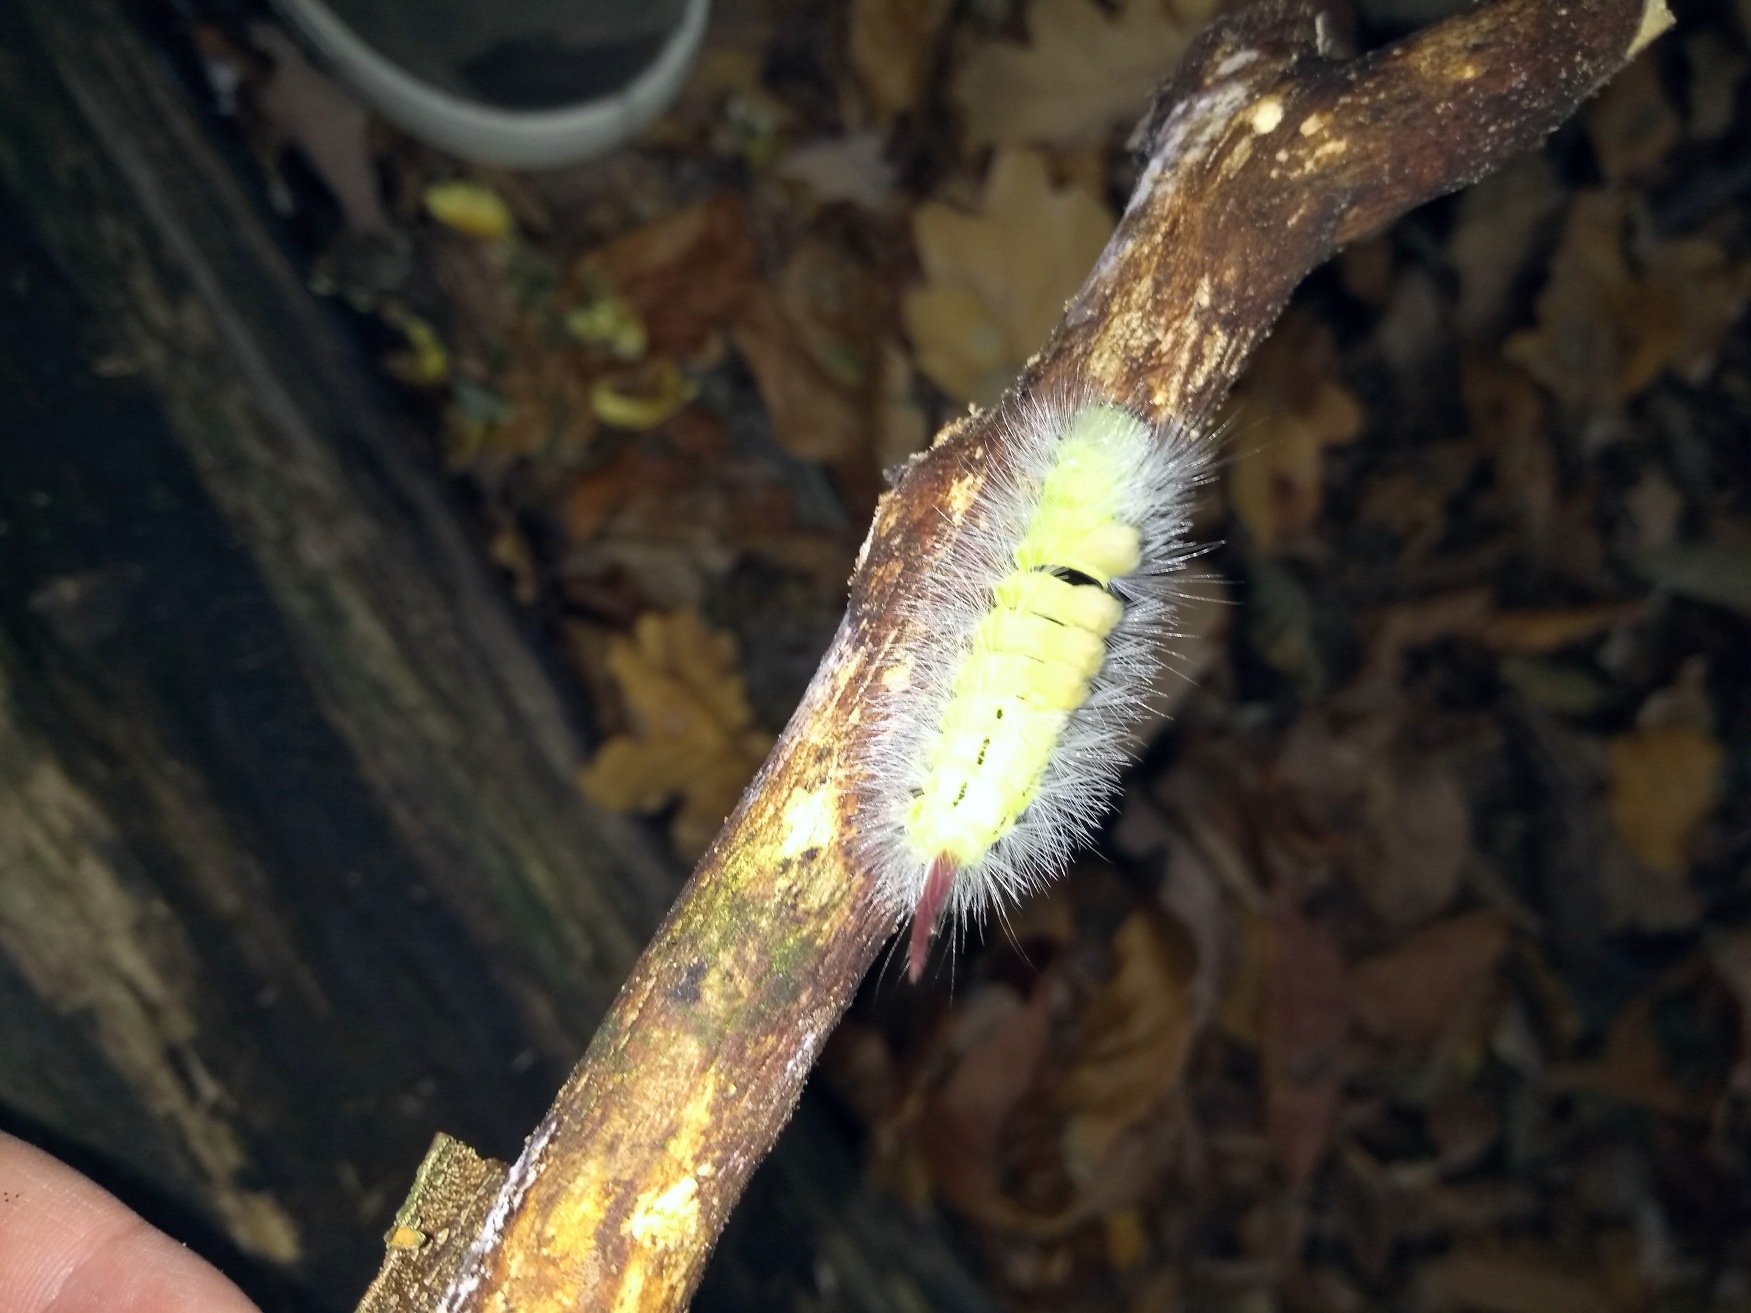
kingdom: Animalia
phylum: Arthropoda
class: Insecta
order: Lepidoptera
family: Erebidae
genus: Calliteara
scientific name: Calliteara pudibunda
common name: Bøgenonne
